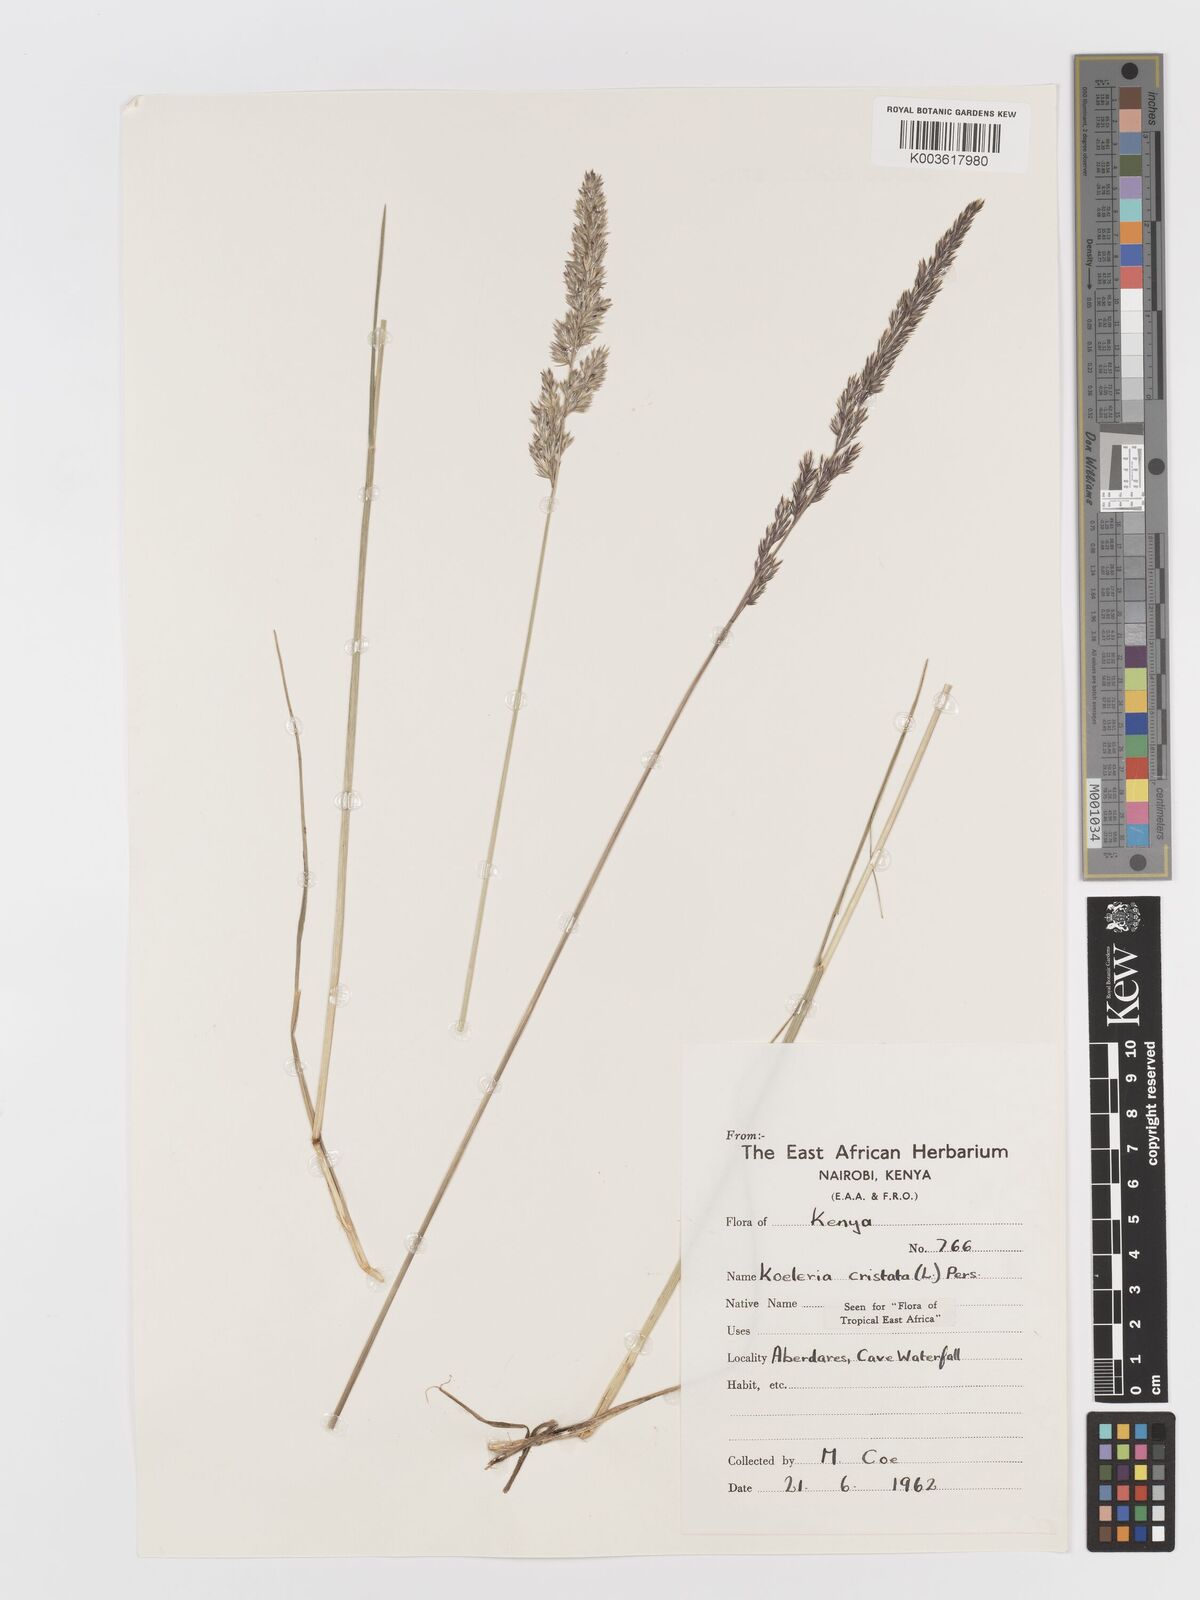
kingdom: Plantae
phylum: Tracheophyta
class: Liliopsida
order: Poales
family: Poaceae
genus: Koeleria
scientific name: Koeleria capensis
